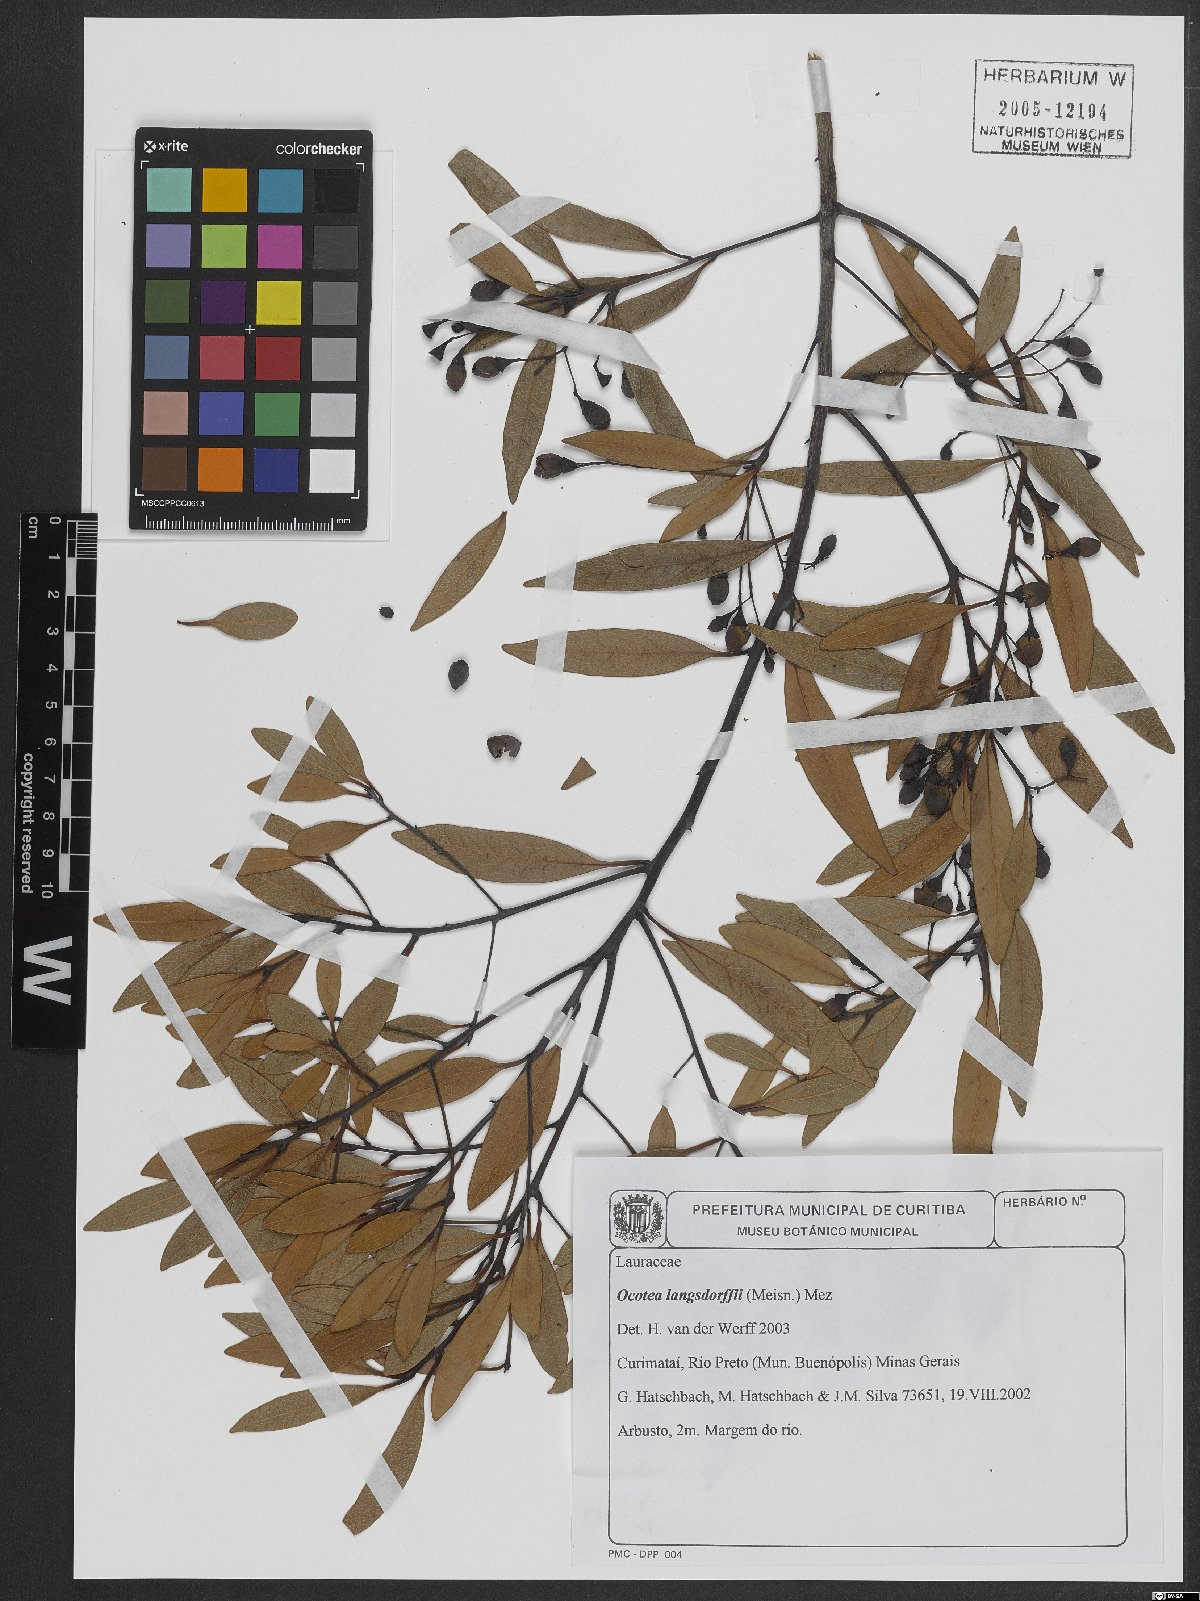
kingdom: Plantae
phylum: Tracheophyta
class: Magnoliopsida
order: Laurales
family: Lauraceae
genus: Ocotea
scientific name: Ocotea langsdorffii
